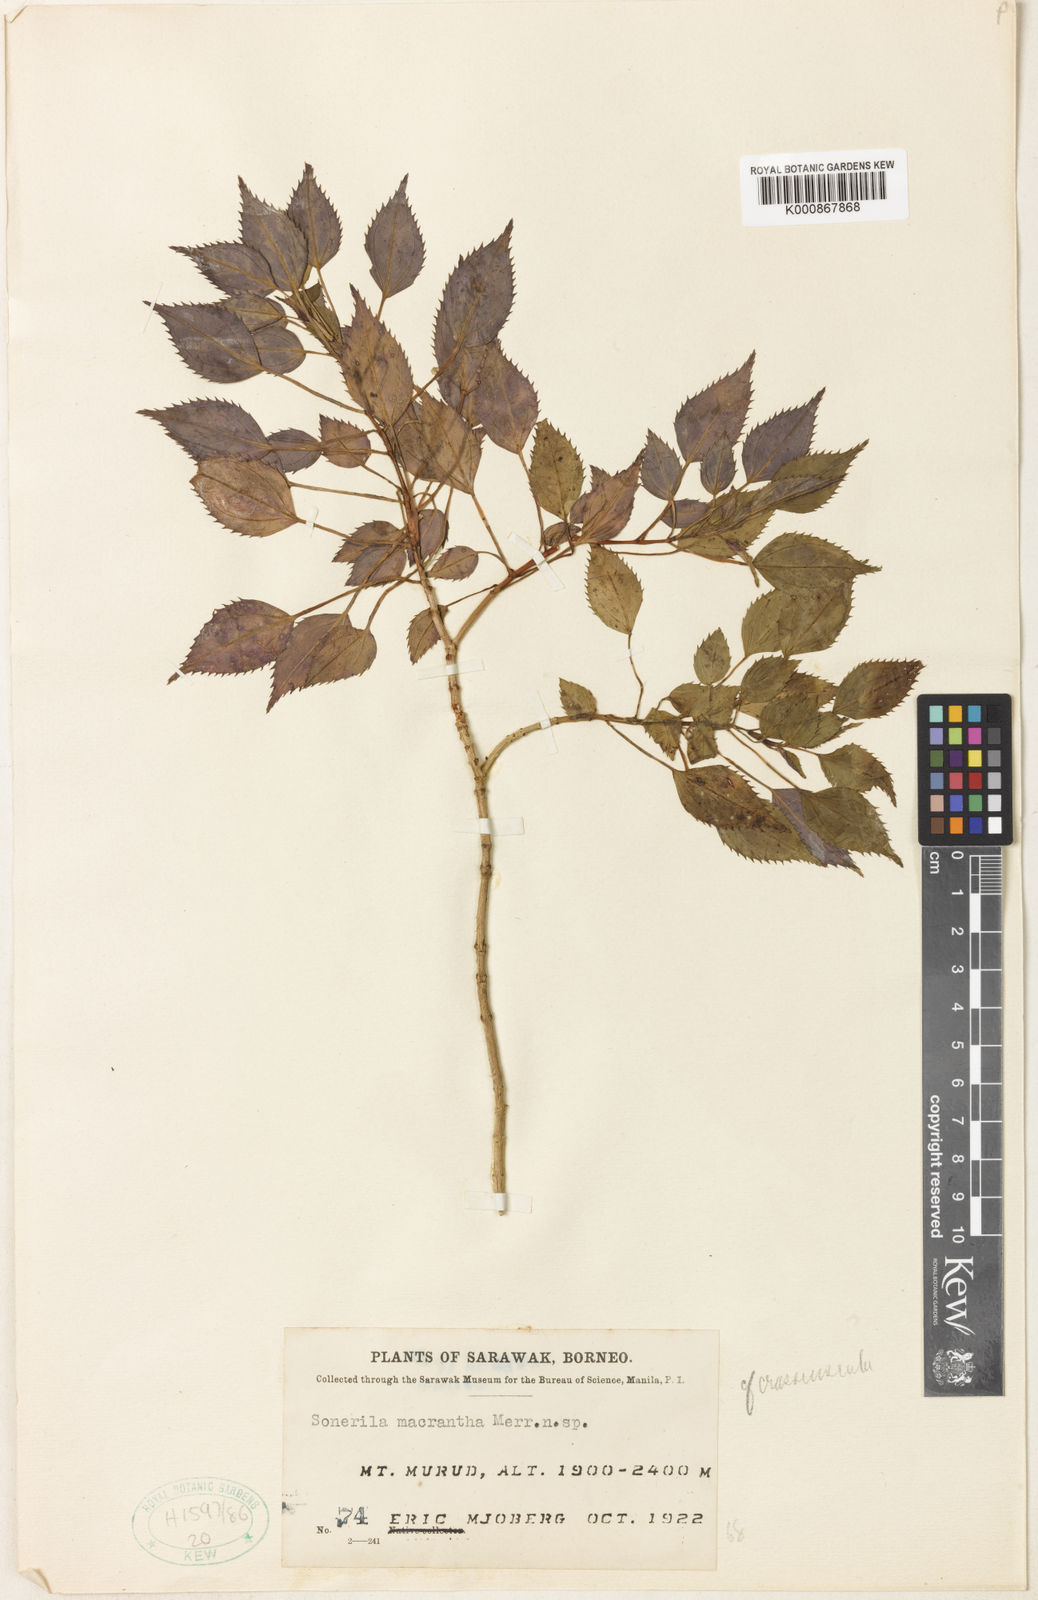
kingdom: Plantae
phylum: Tracheophyta
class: Magnoliopsida
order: Myrtales
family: Melastomataceae
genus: Sonerila
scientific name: Sonerila macrantha
